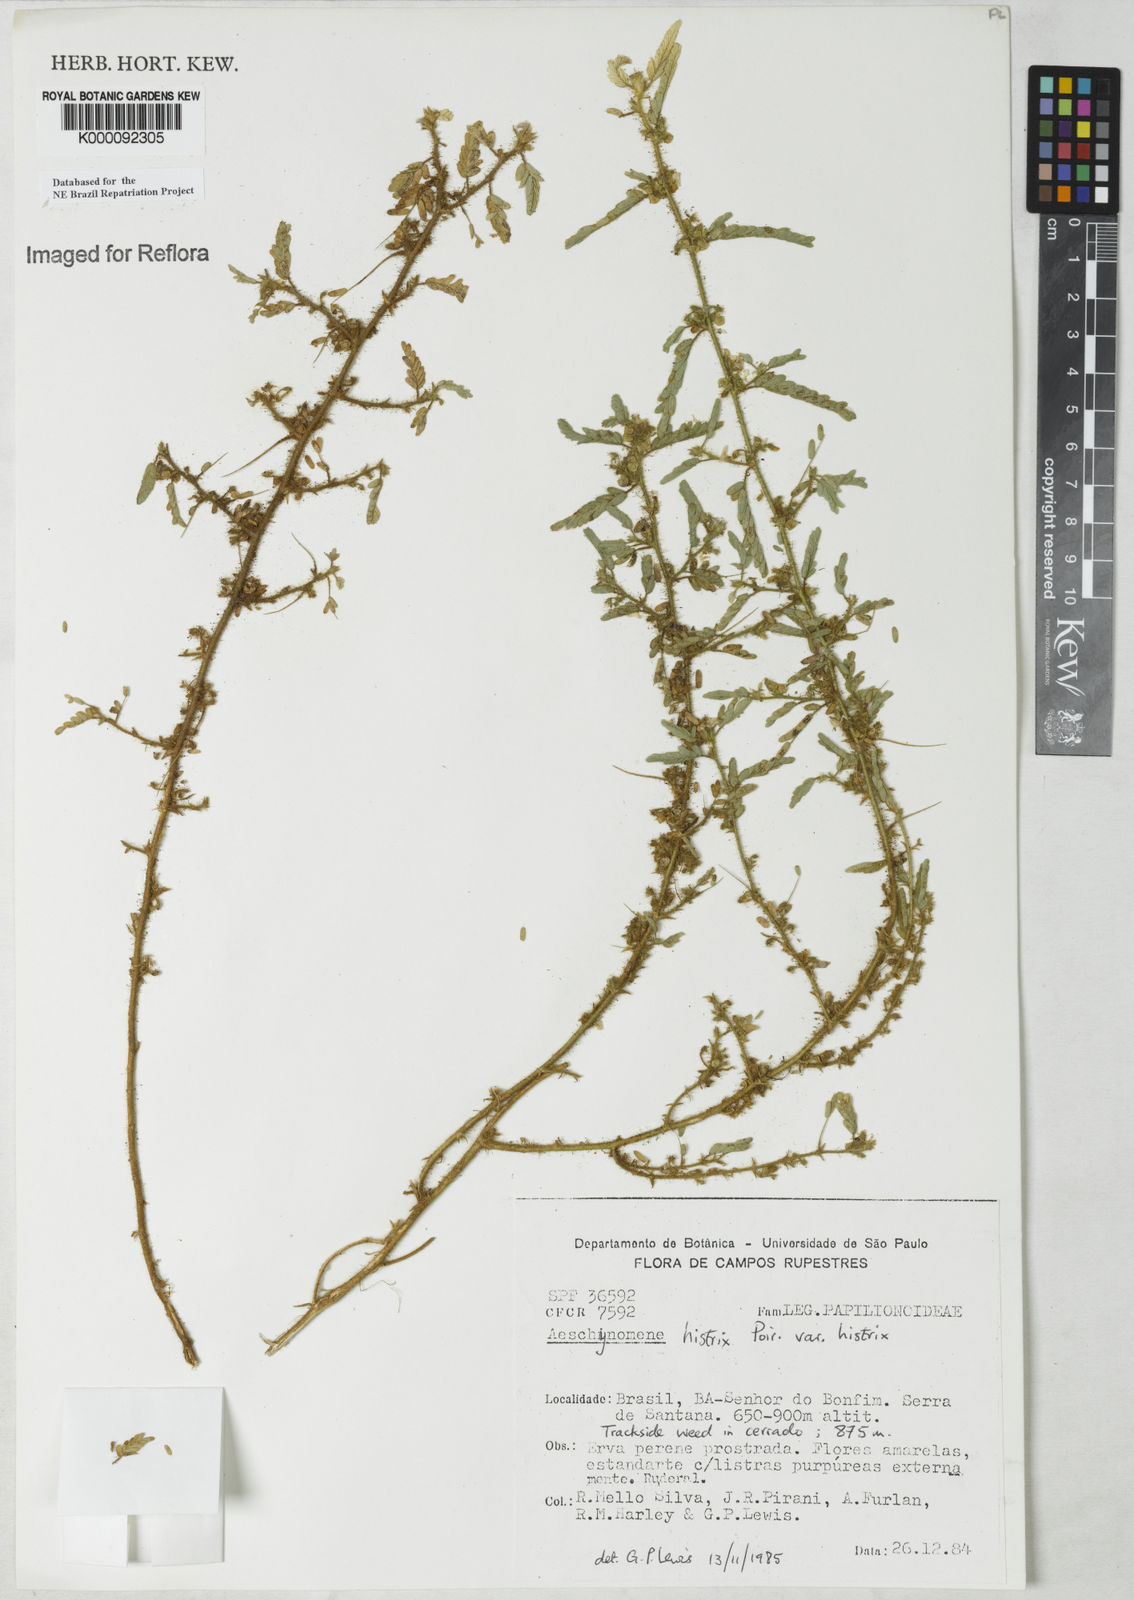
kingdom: Plantae
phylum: Tracheophyta
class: Magnoliopsida
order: Fabales
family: Fabaceae
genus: Ctenodon
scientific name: Ctenodon histrix
